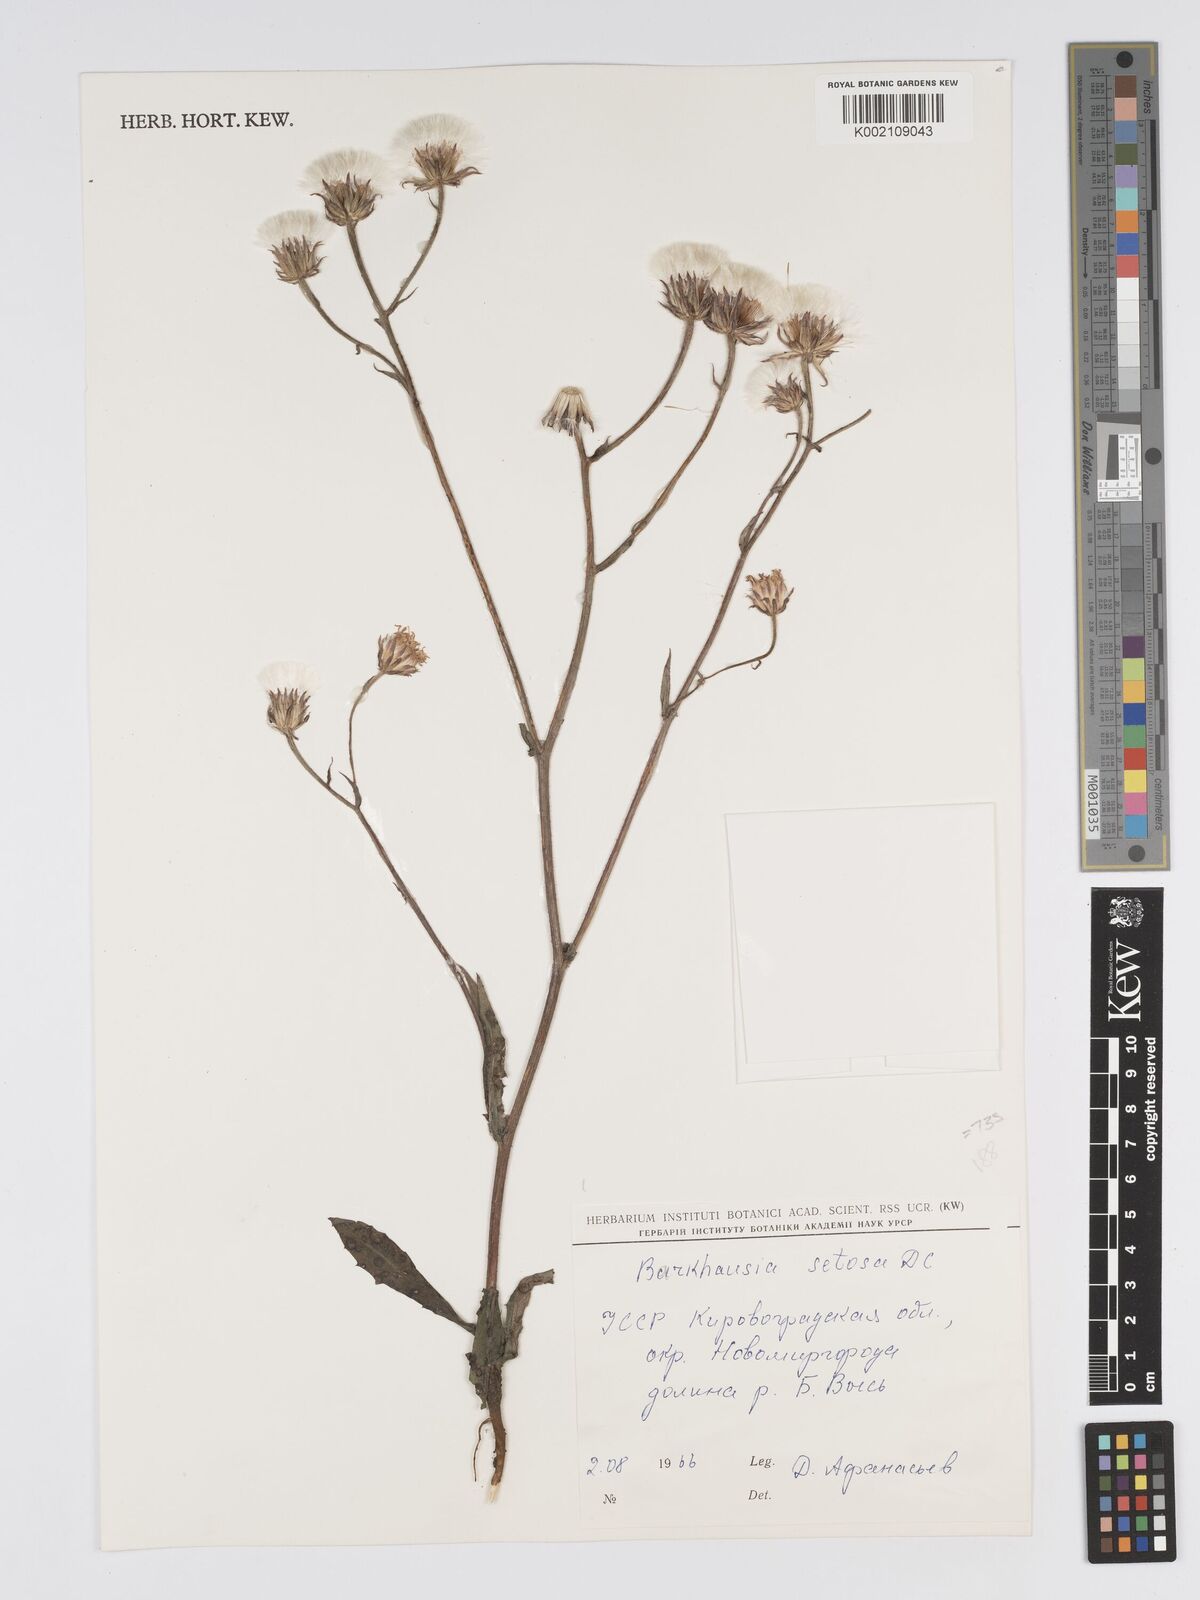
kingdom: Plantae
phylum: Tracheophyta
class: Magnoliopsida
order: Asterales
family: Asteraceae
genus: Crepis
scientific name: Crepis setosa
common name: Bristly hawk's-beard
